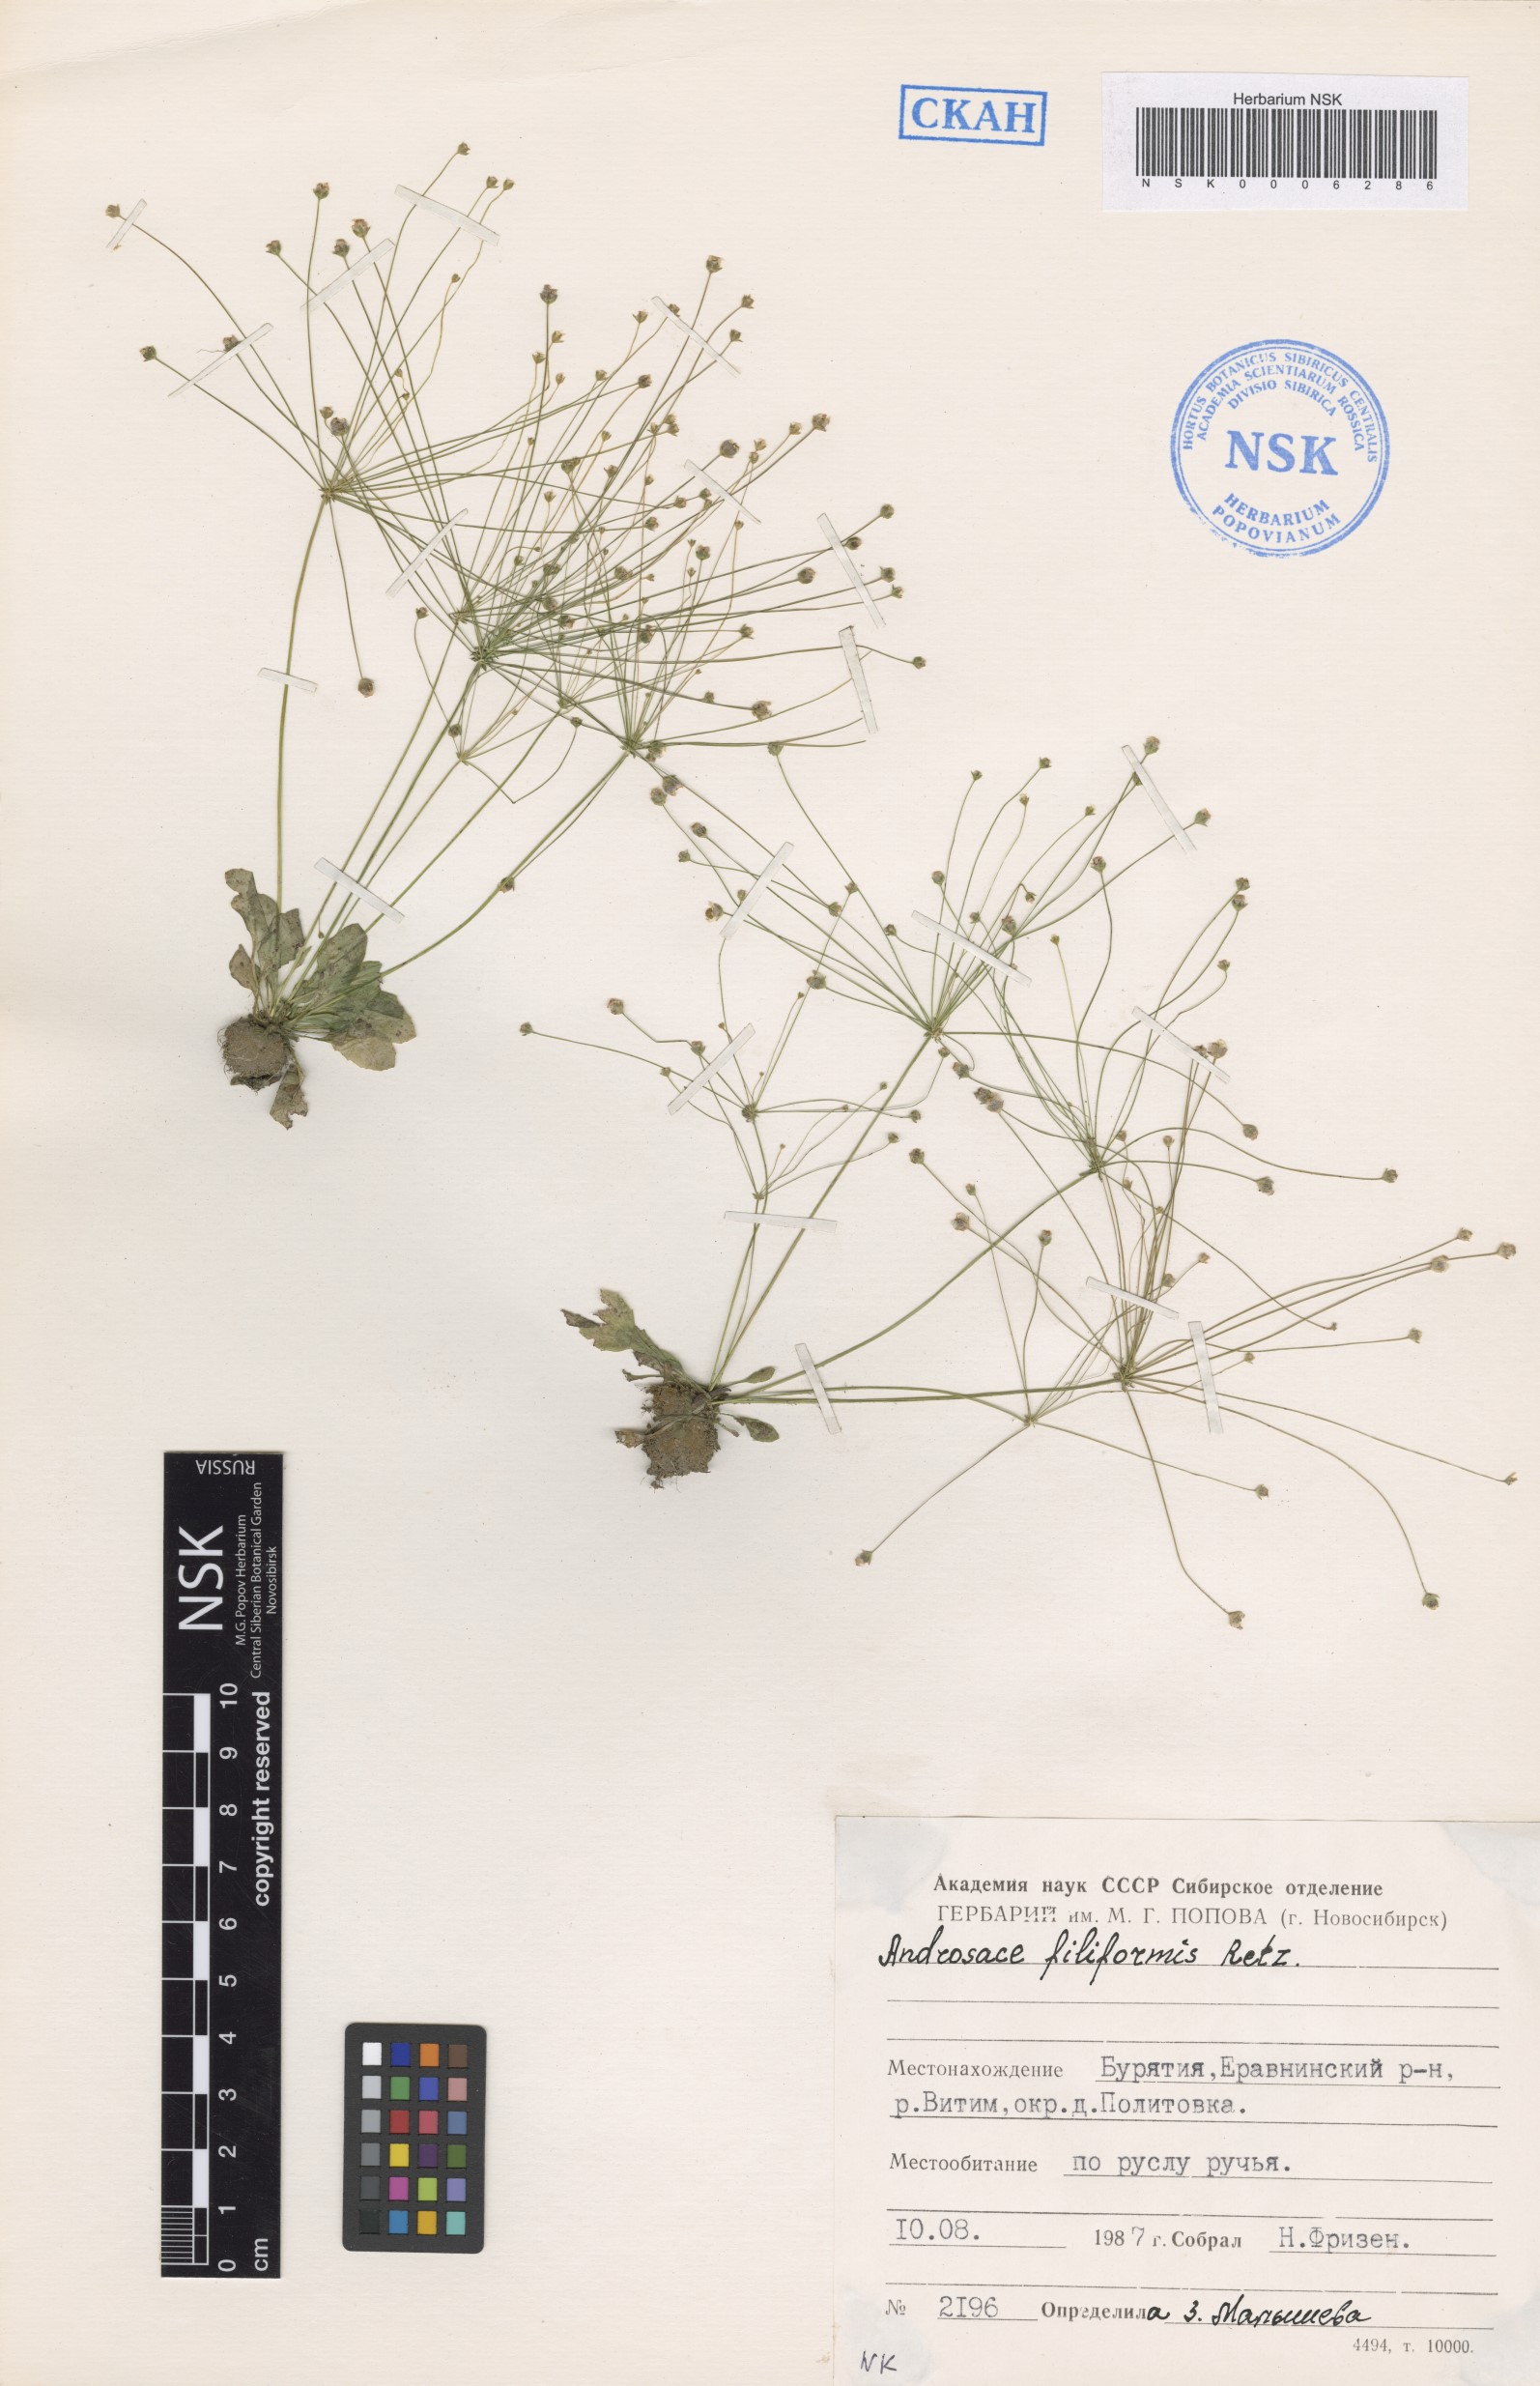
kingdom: Plantae
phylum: Tracheophyta
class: Magnoliopsida
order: Ericales
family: Primulaceae
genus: Androsace
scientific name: Androsace filiformis
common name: Filiform rock jasmine
